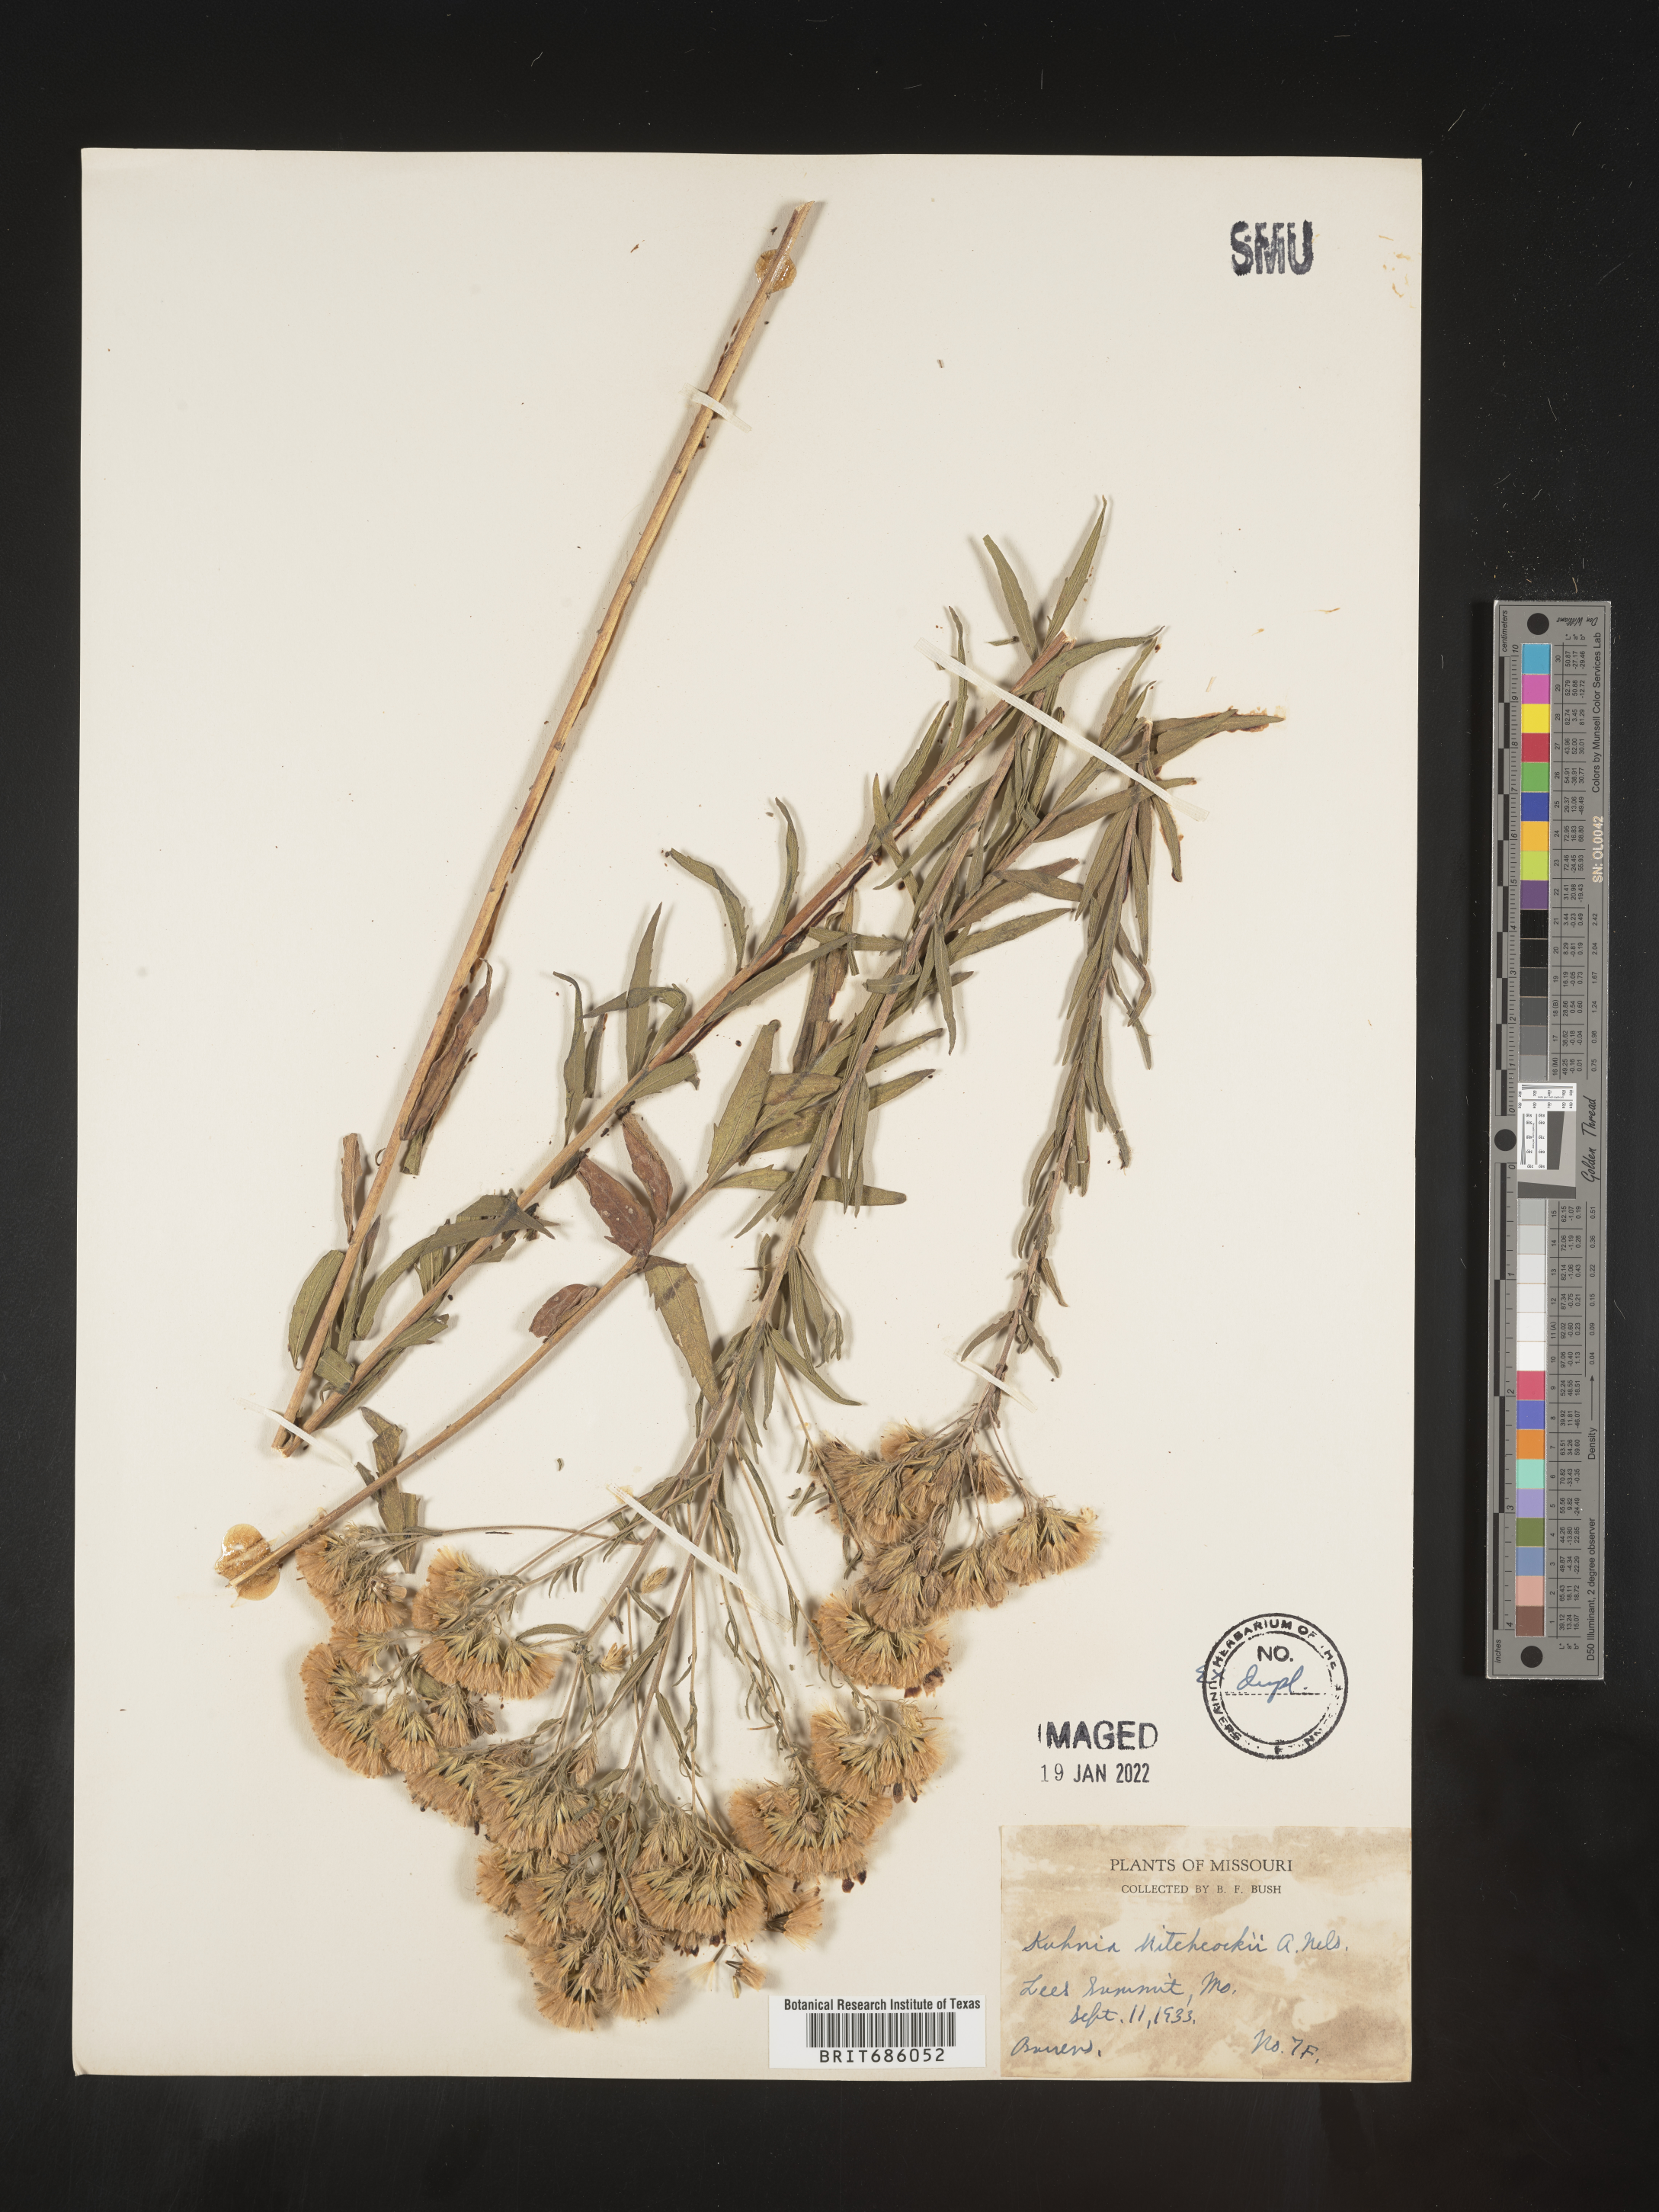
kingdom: Plantae
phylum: Tracheophyta
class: Magnoliopsida
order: Asterales
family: Asteraceae
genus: Brickellia
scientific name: Brickellia suaveolens
